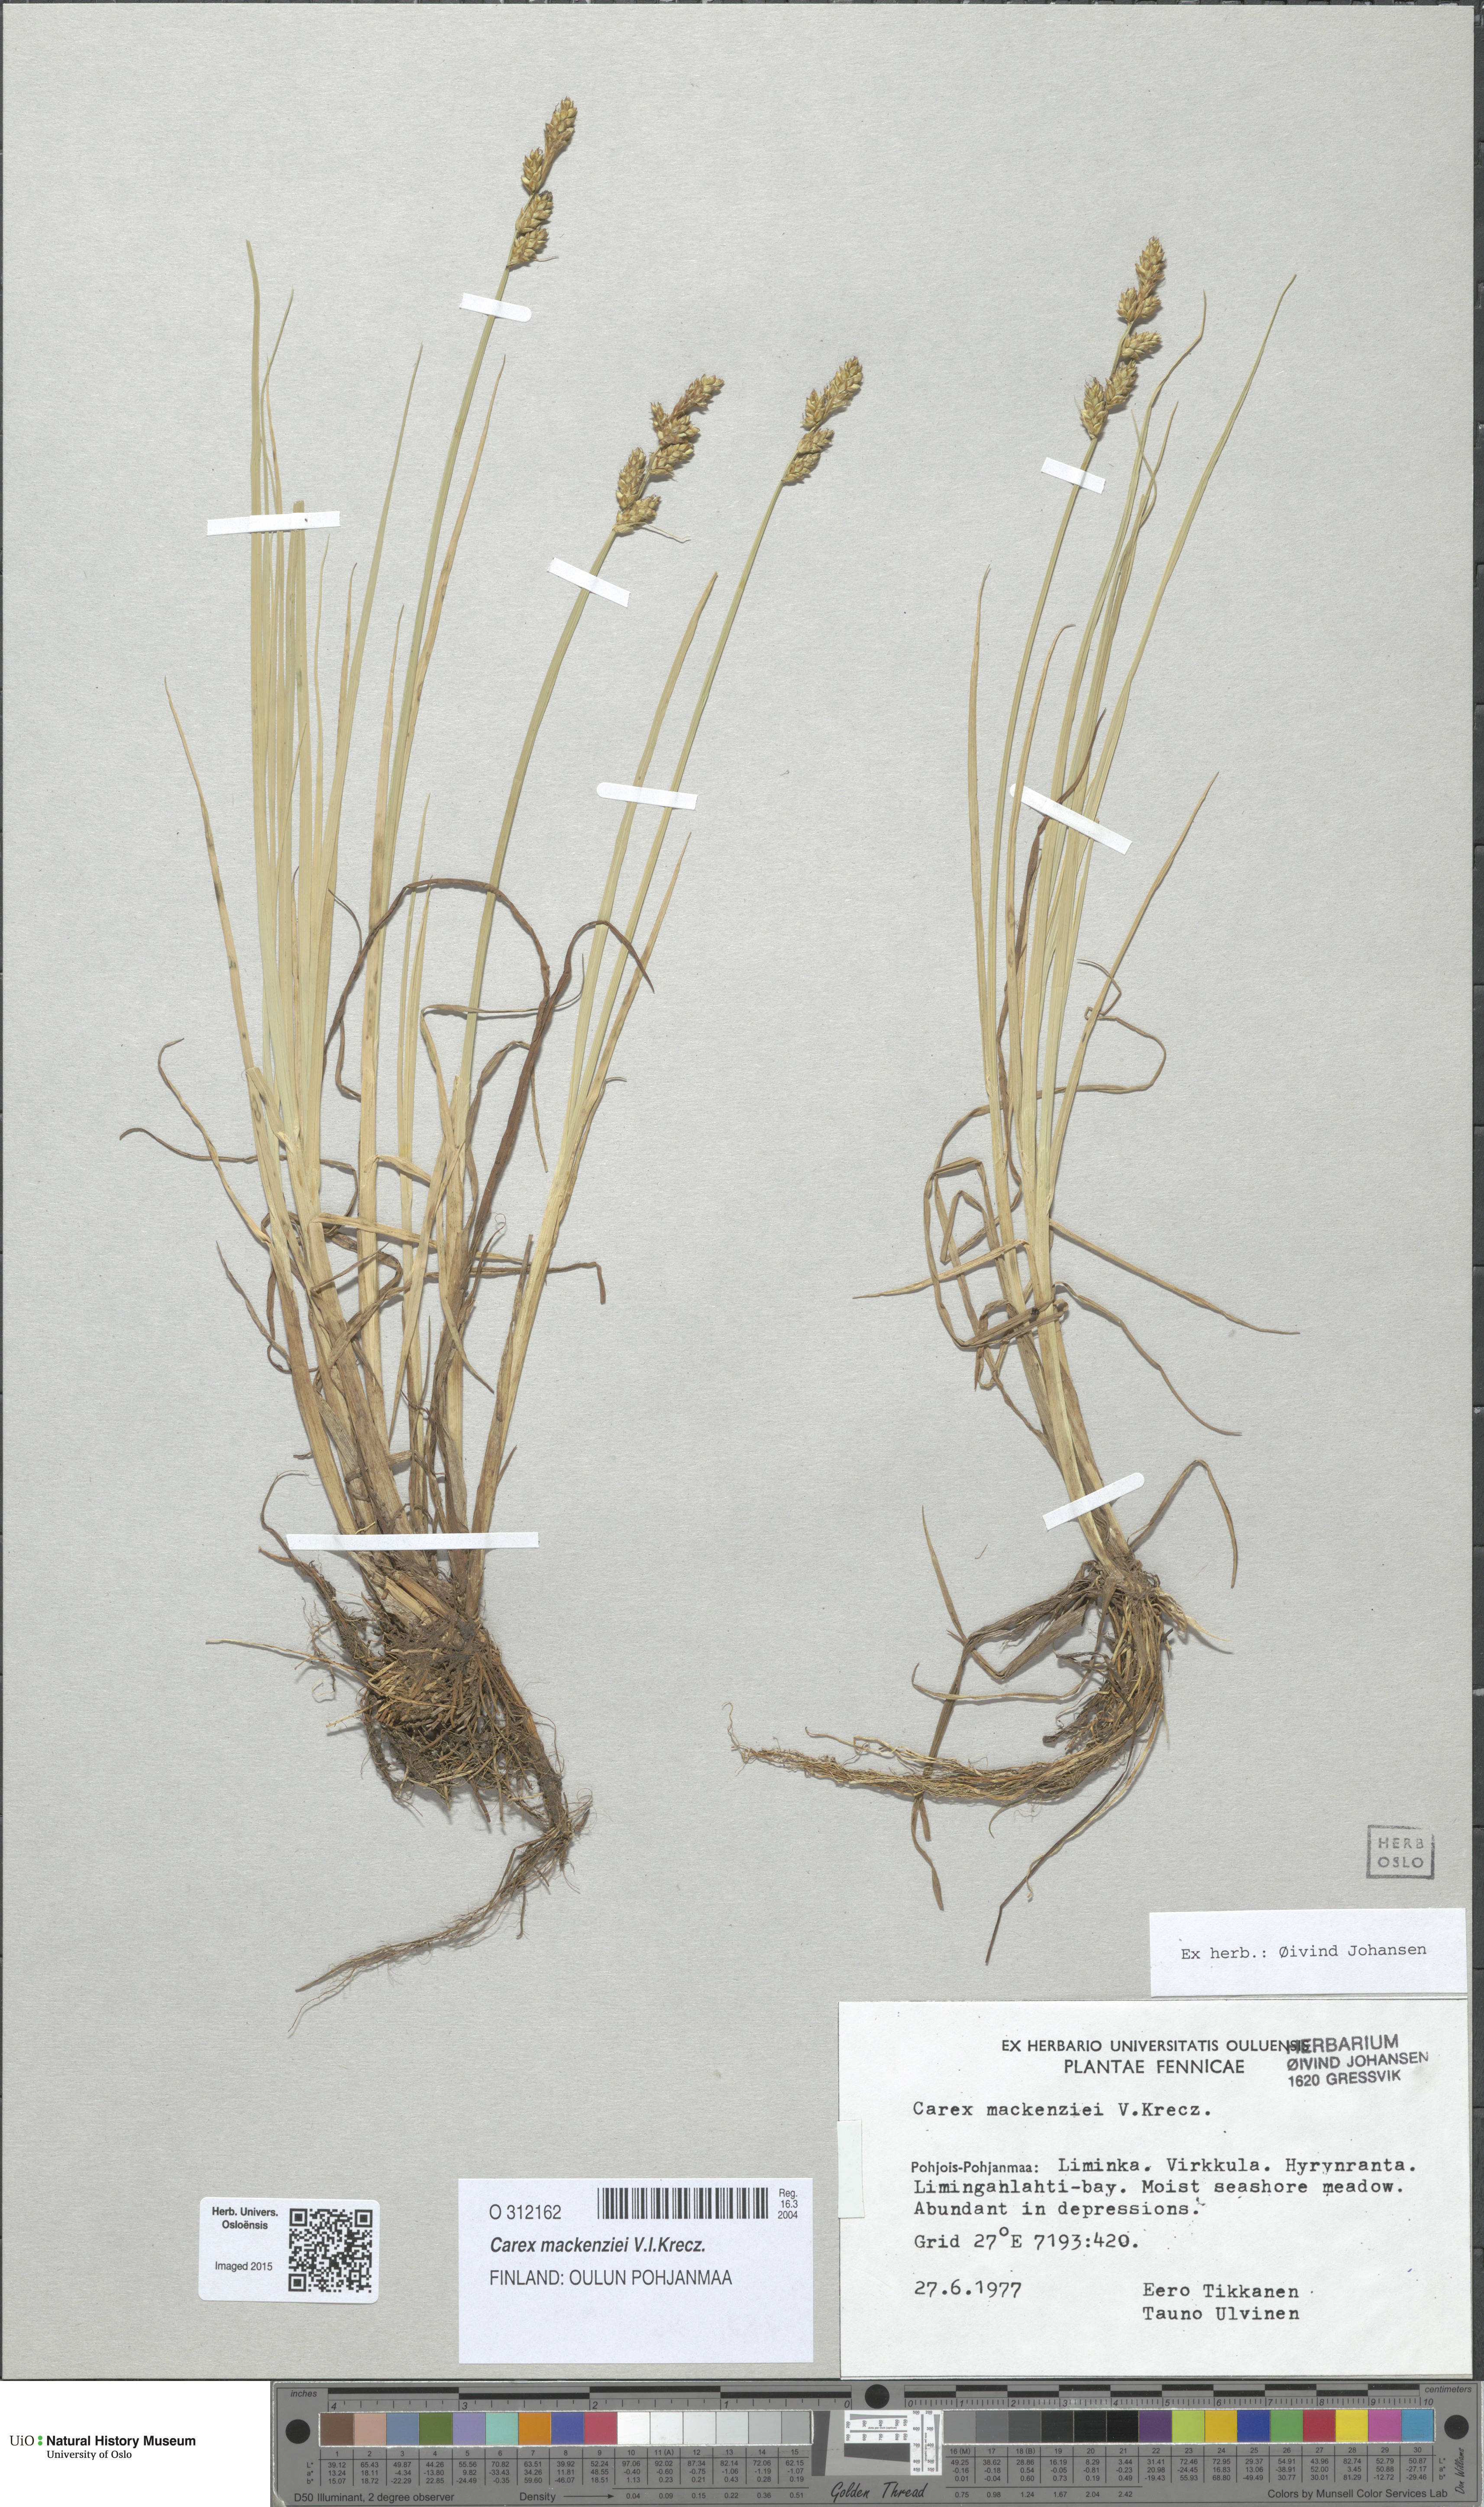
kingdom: Plantae
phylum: Tracheophyta
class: Liliopsida
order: Poales
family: Cyperaceae
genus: Carex
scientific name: Carex mackenziei
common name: Mackenzie's sedge
